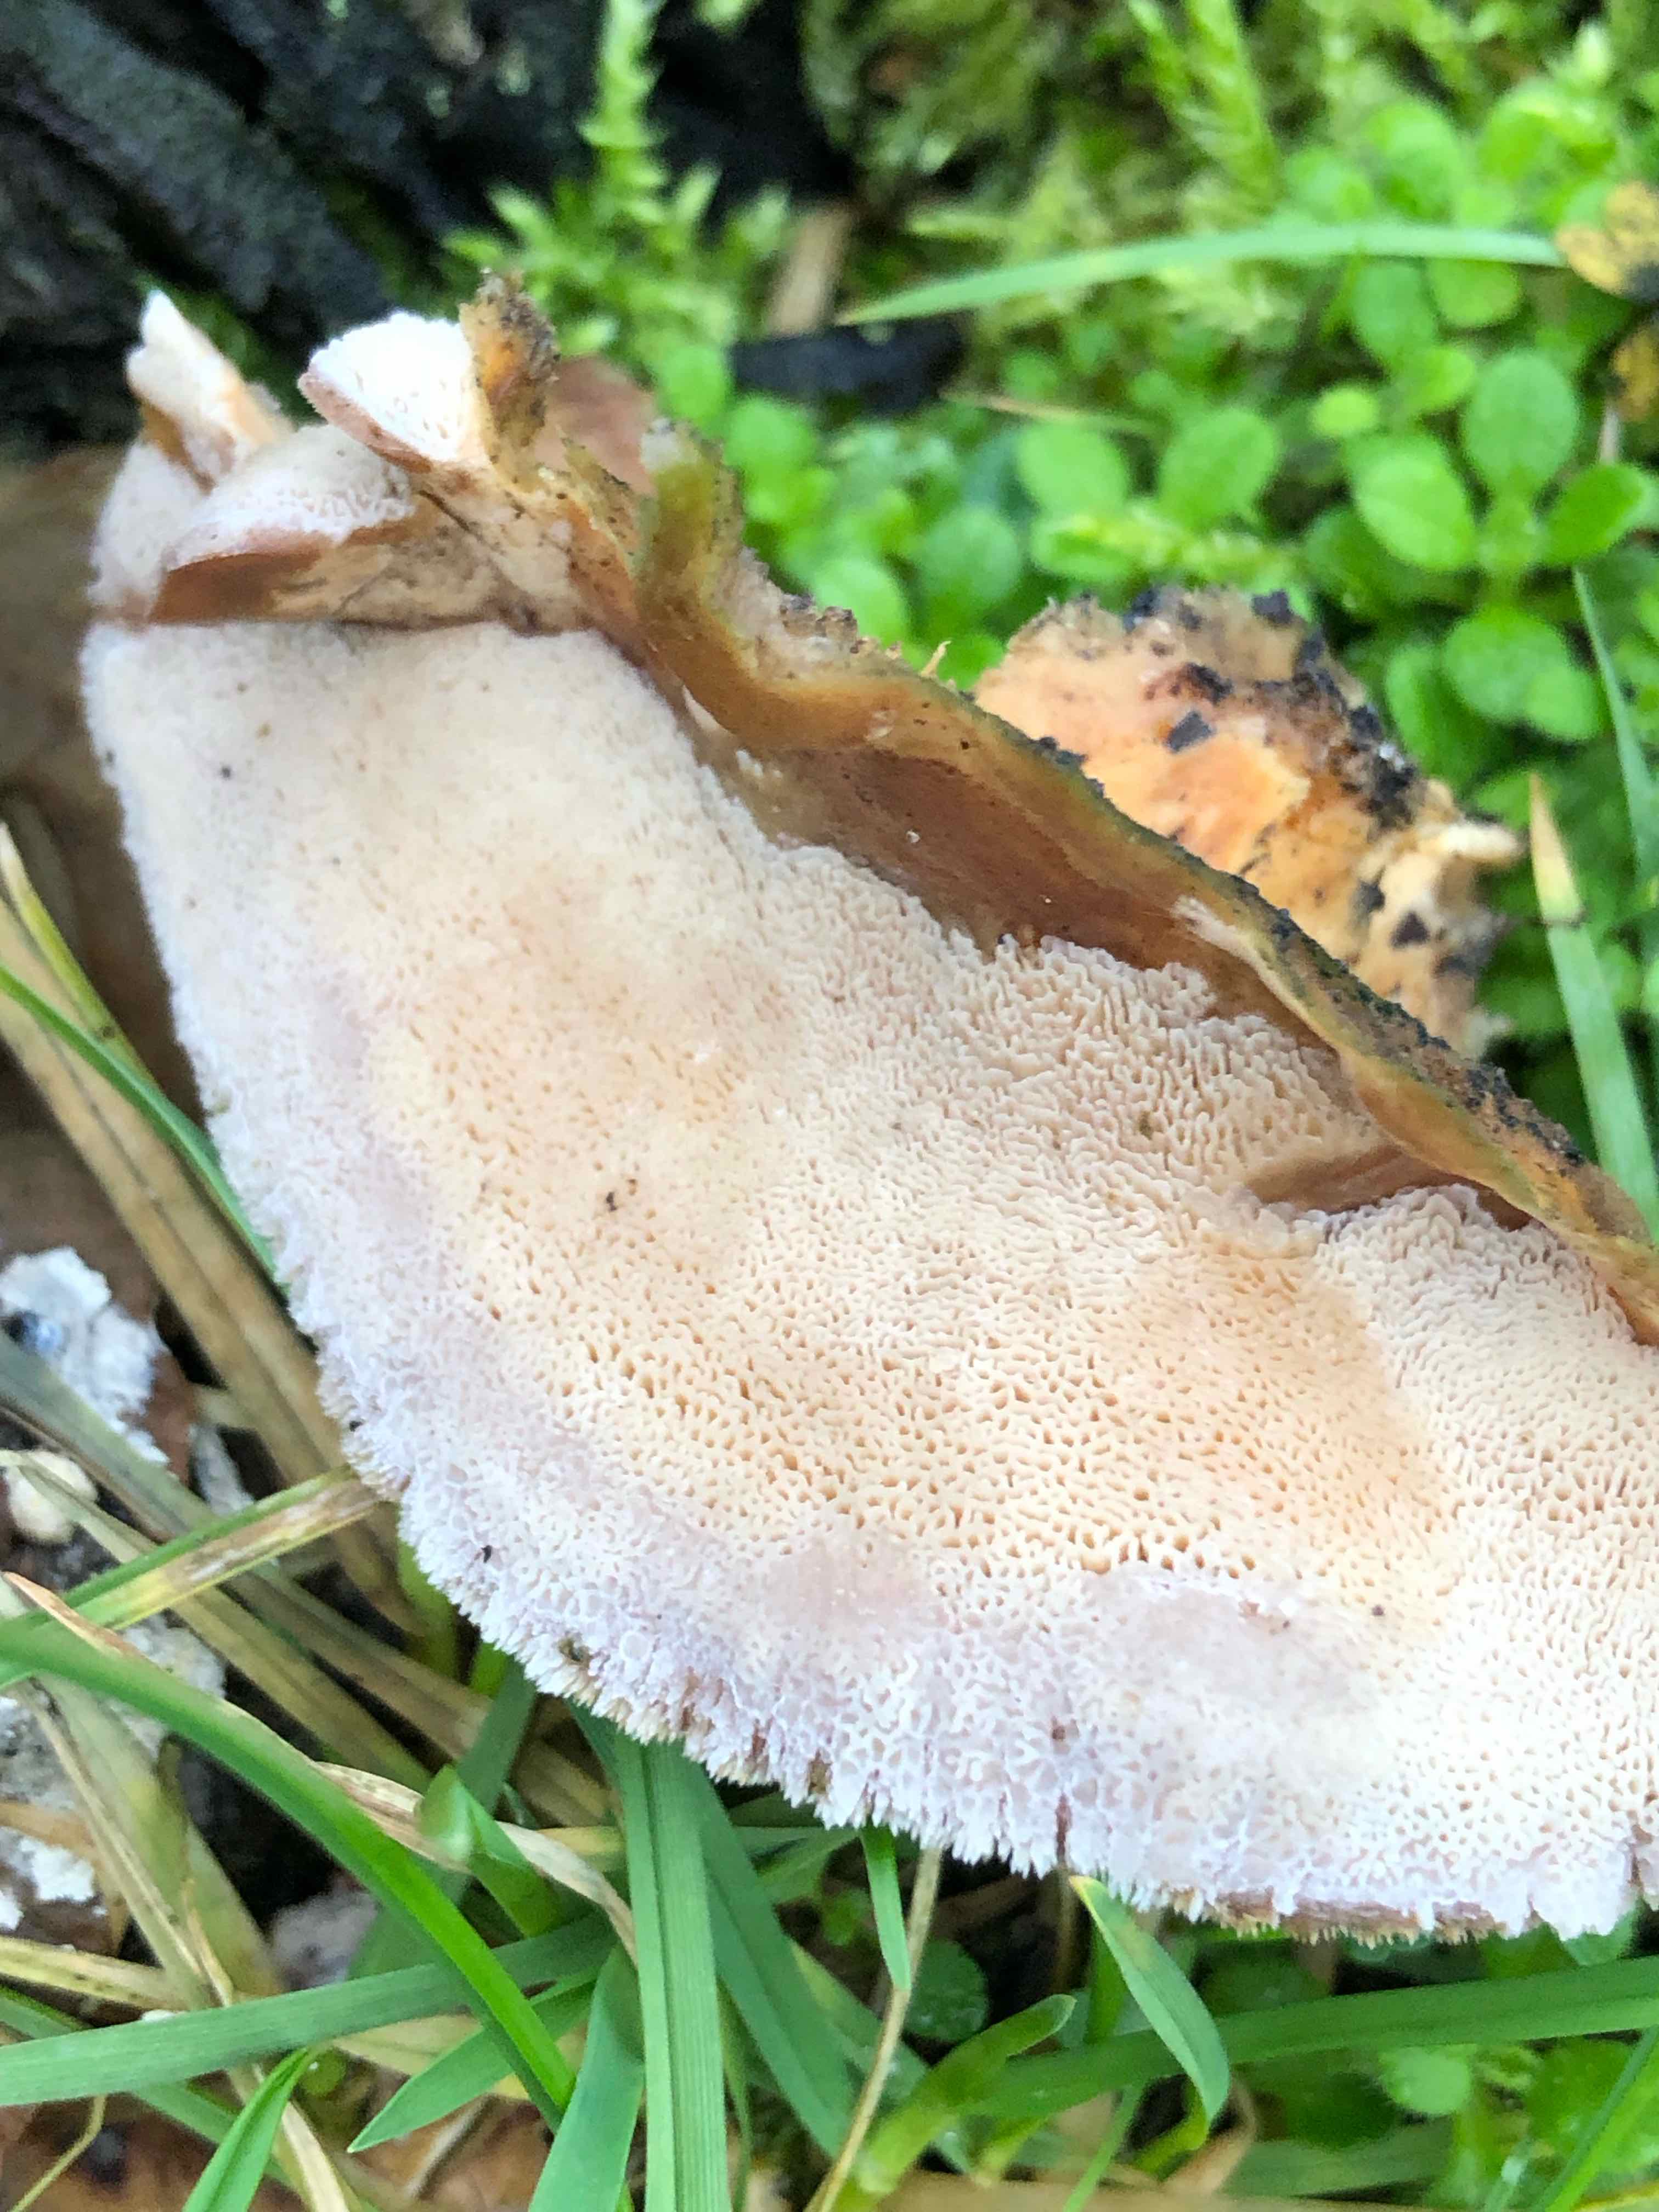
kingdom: Fungi
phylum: Basidiomycota
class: Agaricomycetes
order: Polyporales
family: Phanerochaetaceae
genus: Bjerkandera
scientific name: Bjerkandera fumosa
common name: grågul sodporesvamp
